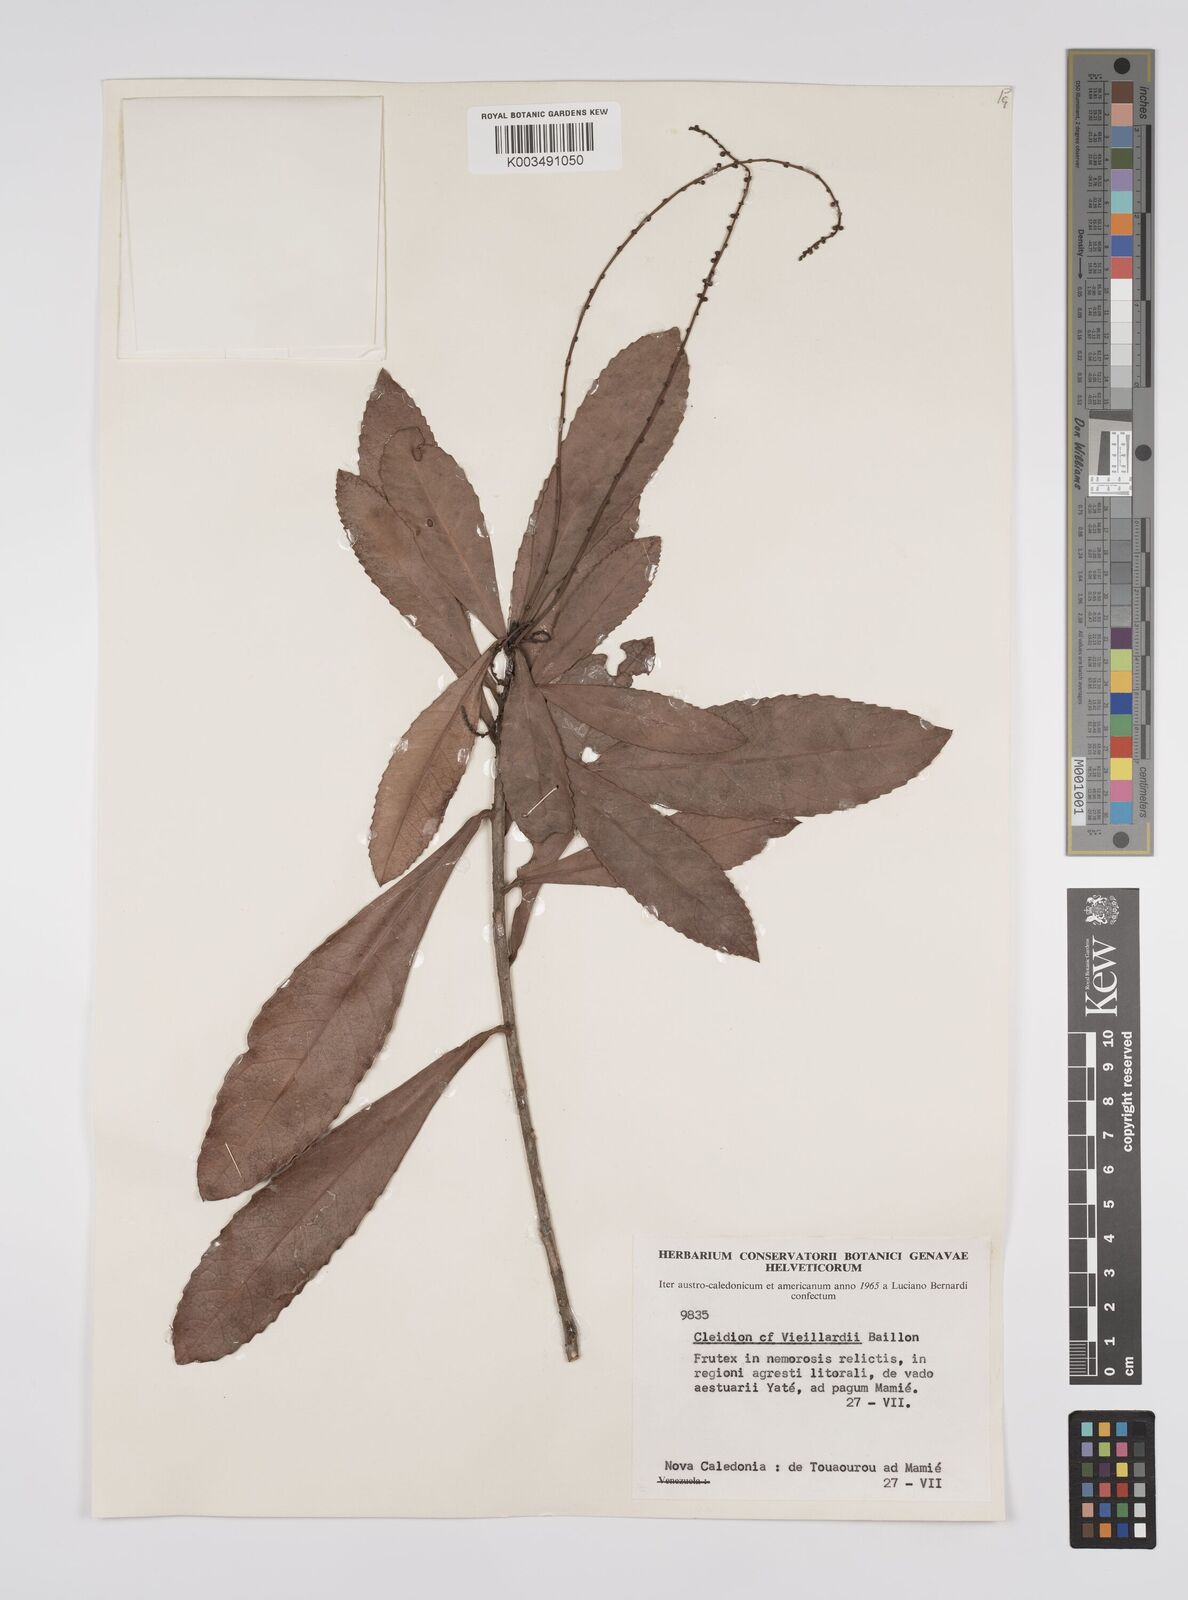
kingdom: Plantae
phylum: Tracheophyta
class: Magnoliopsida
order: Malpighiales
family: Euphorbiaceae
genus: Cleidion
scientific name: Cleidion vieillardii
